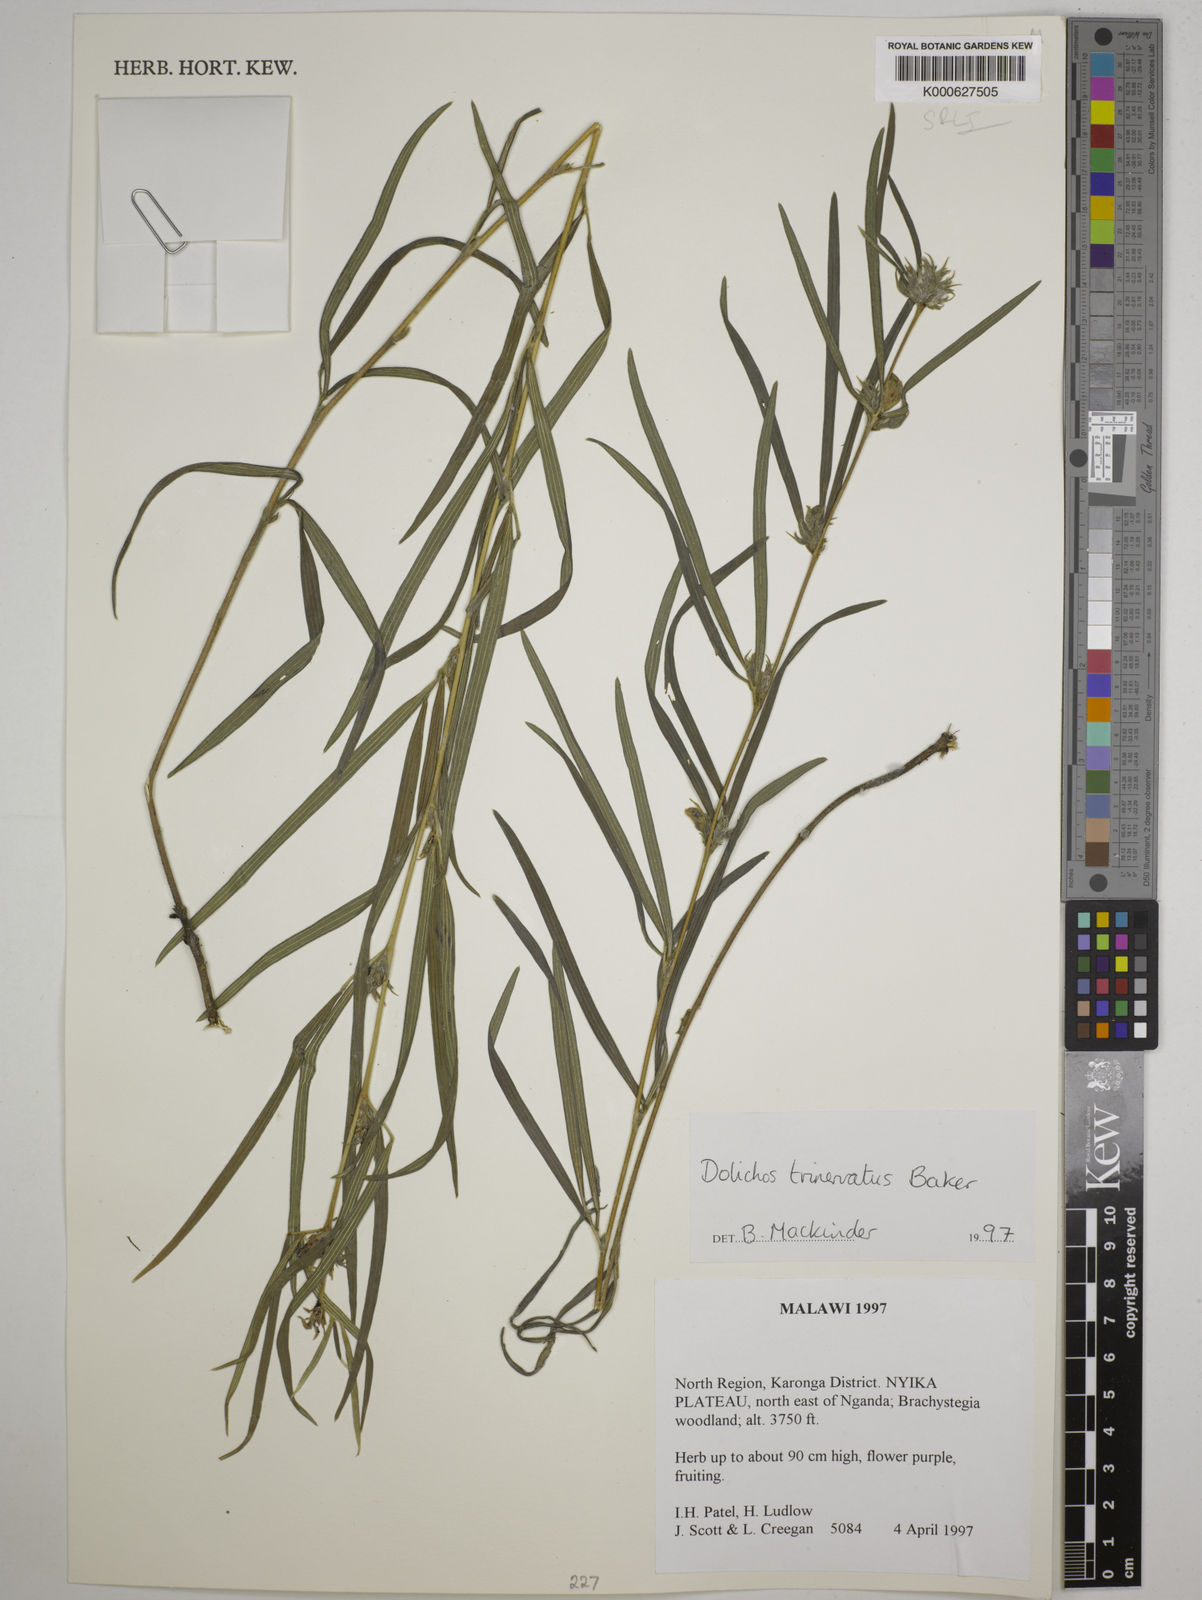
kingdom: Plantae
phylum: Tracheophyta
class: Magnoliopsida
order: Fabales
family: Fabaceae
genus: Dolichos
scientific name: Dolichos trinervatus
